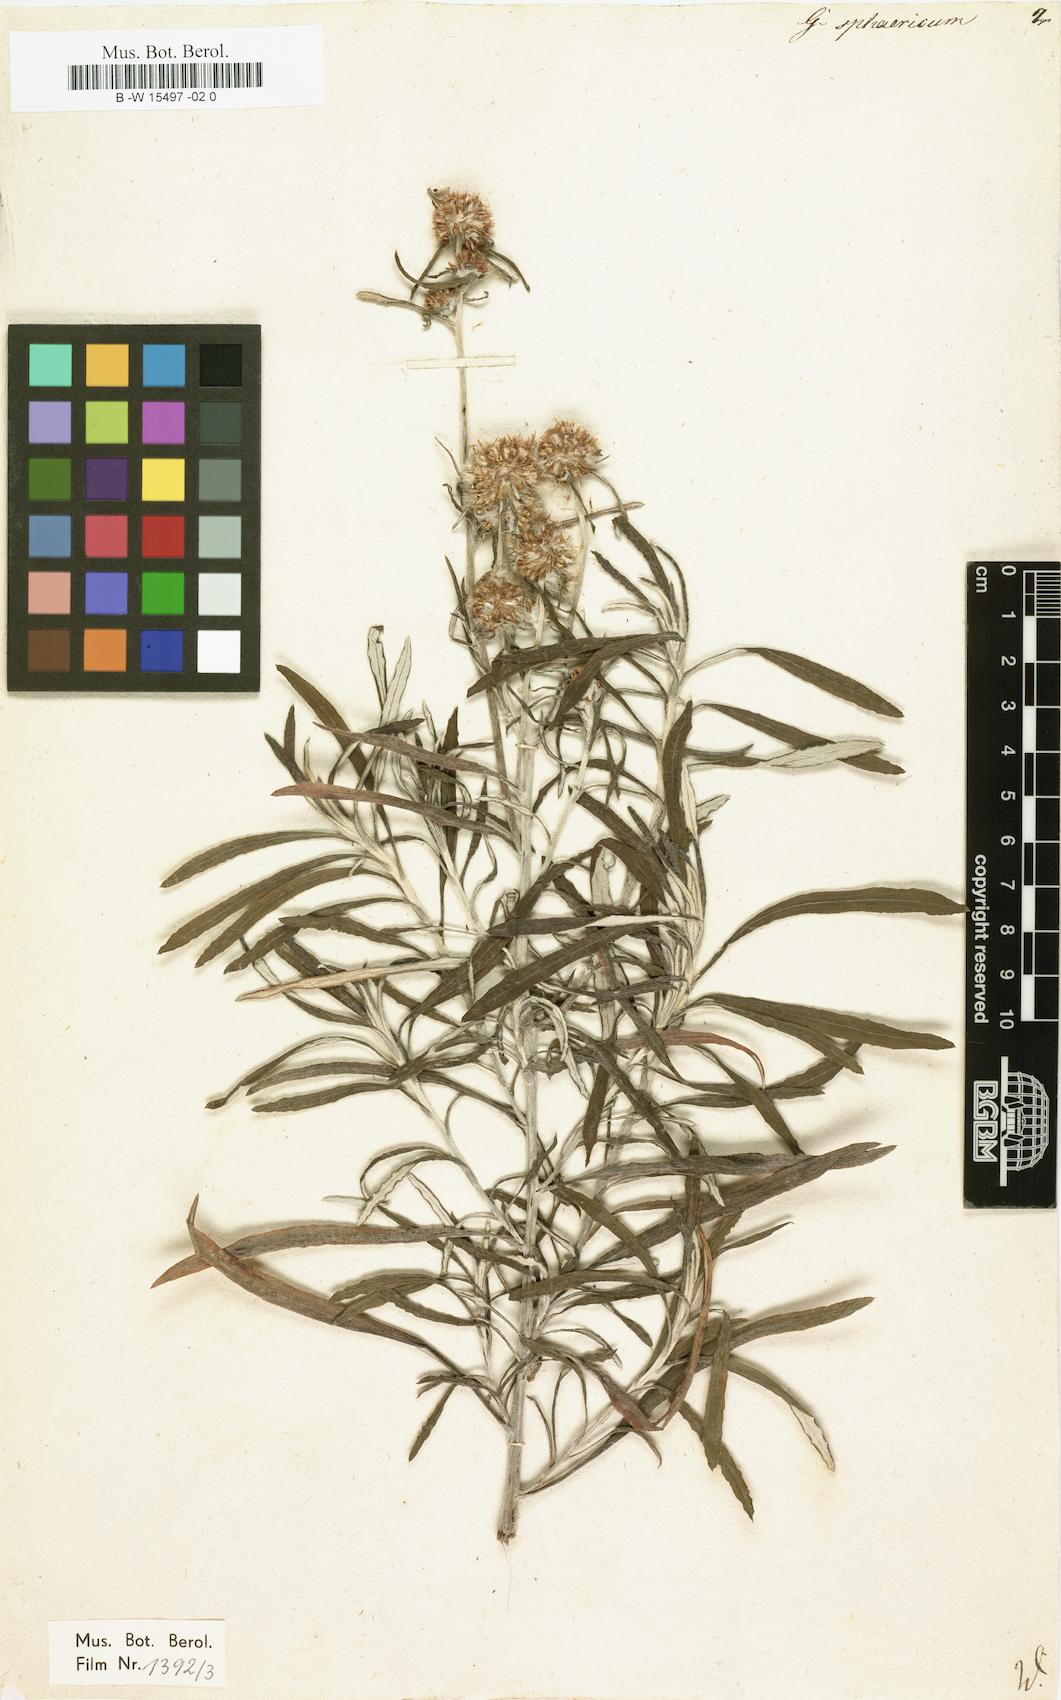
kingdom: Plantae
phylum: Tracheophyta
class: Magnoliopsida
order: Asterales
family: Asteraceae
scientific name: Asteraceae
